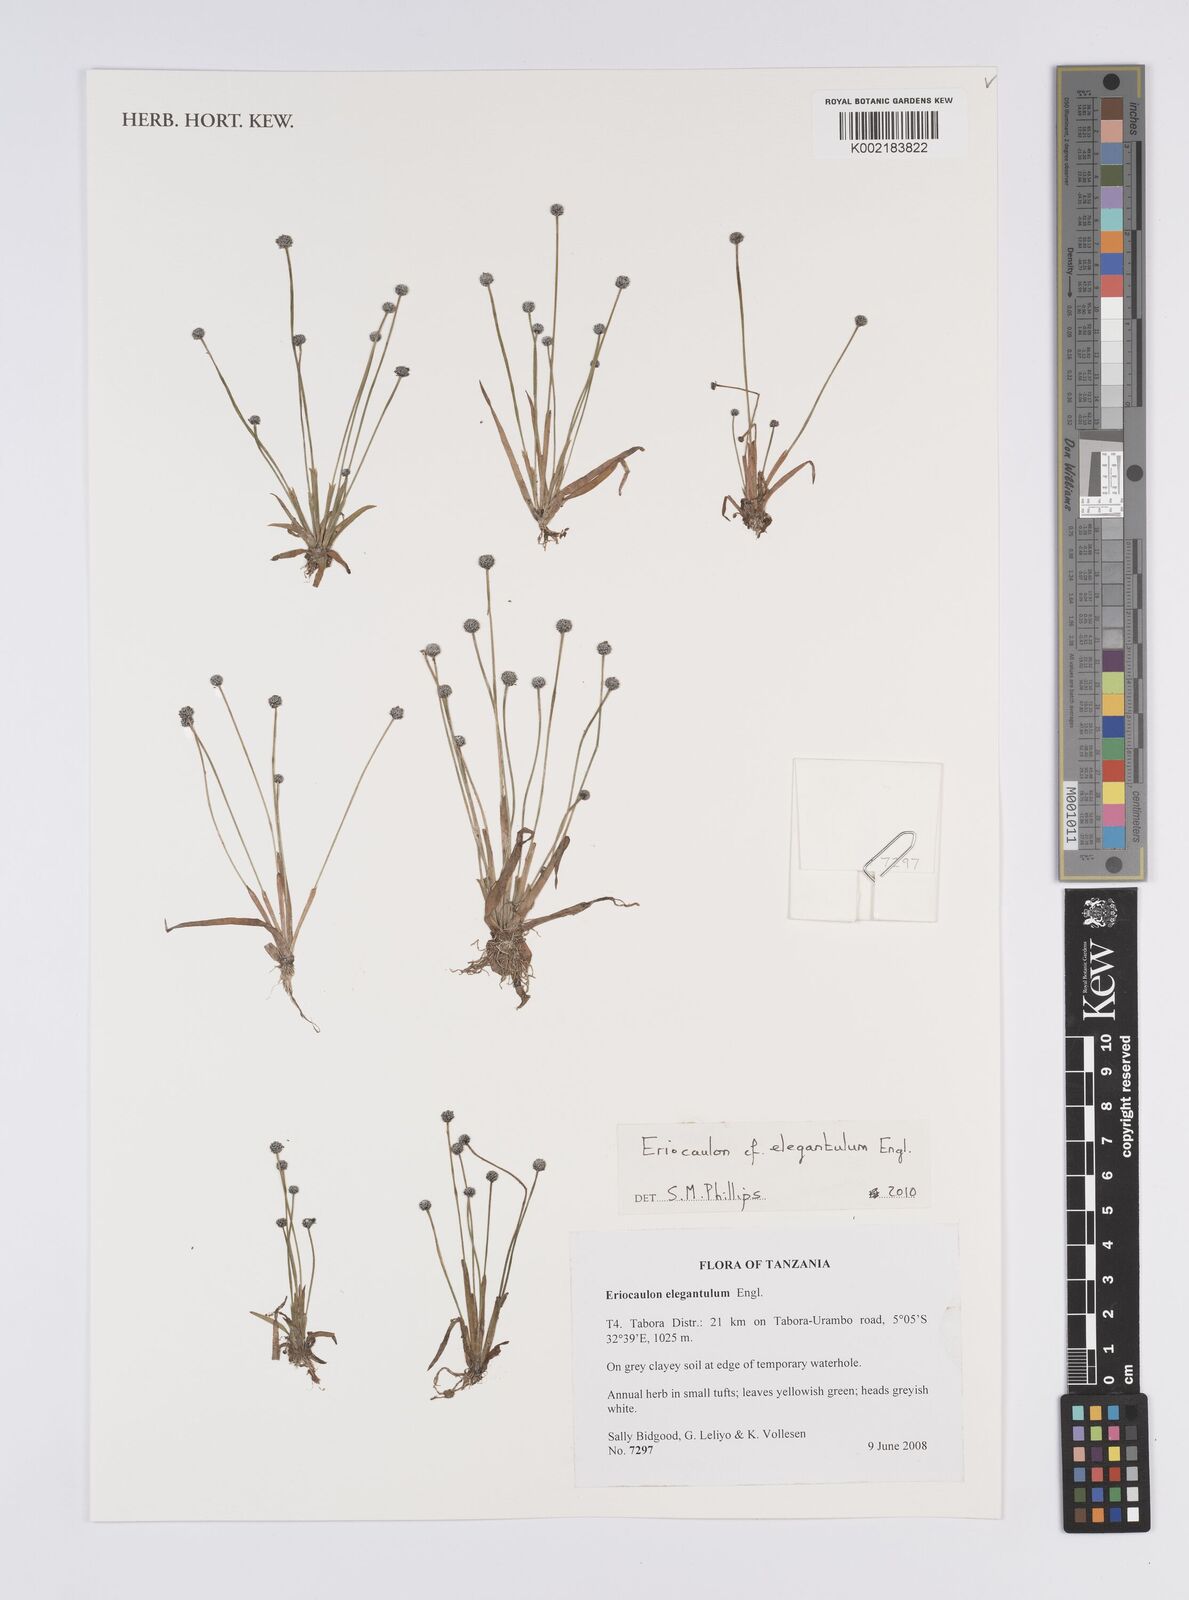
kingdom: Plantae
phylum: Tracheophyta
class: Liliopsida
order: Poales
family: Eriocaulaceae
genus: Eriocaulon
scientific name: Eriocaulon elegantulum
